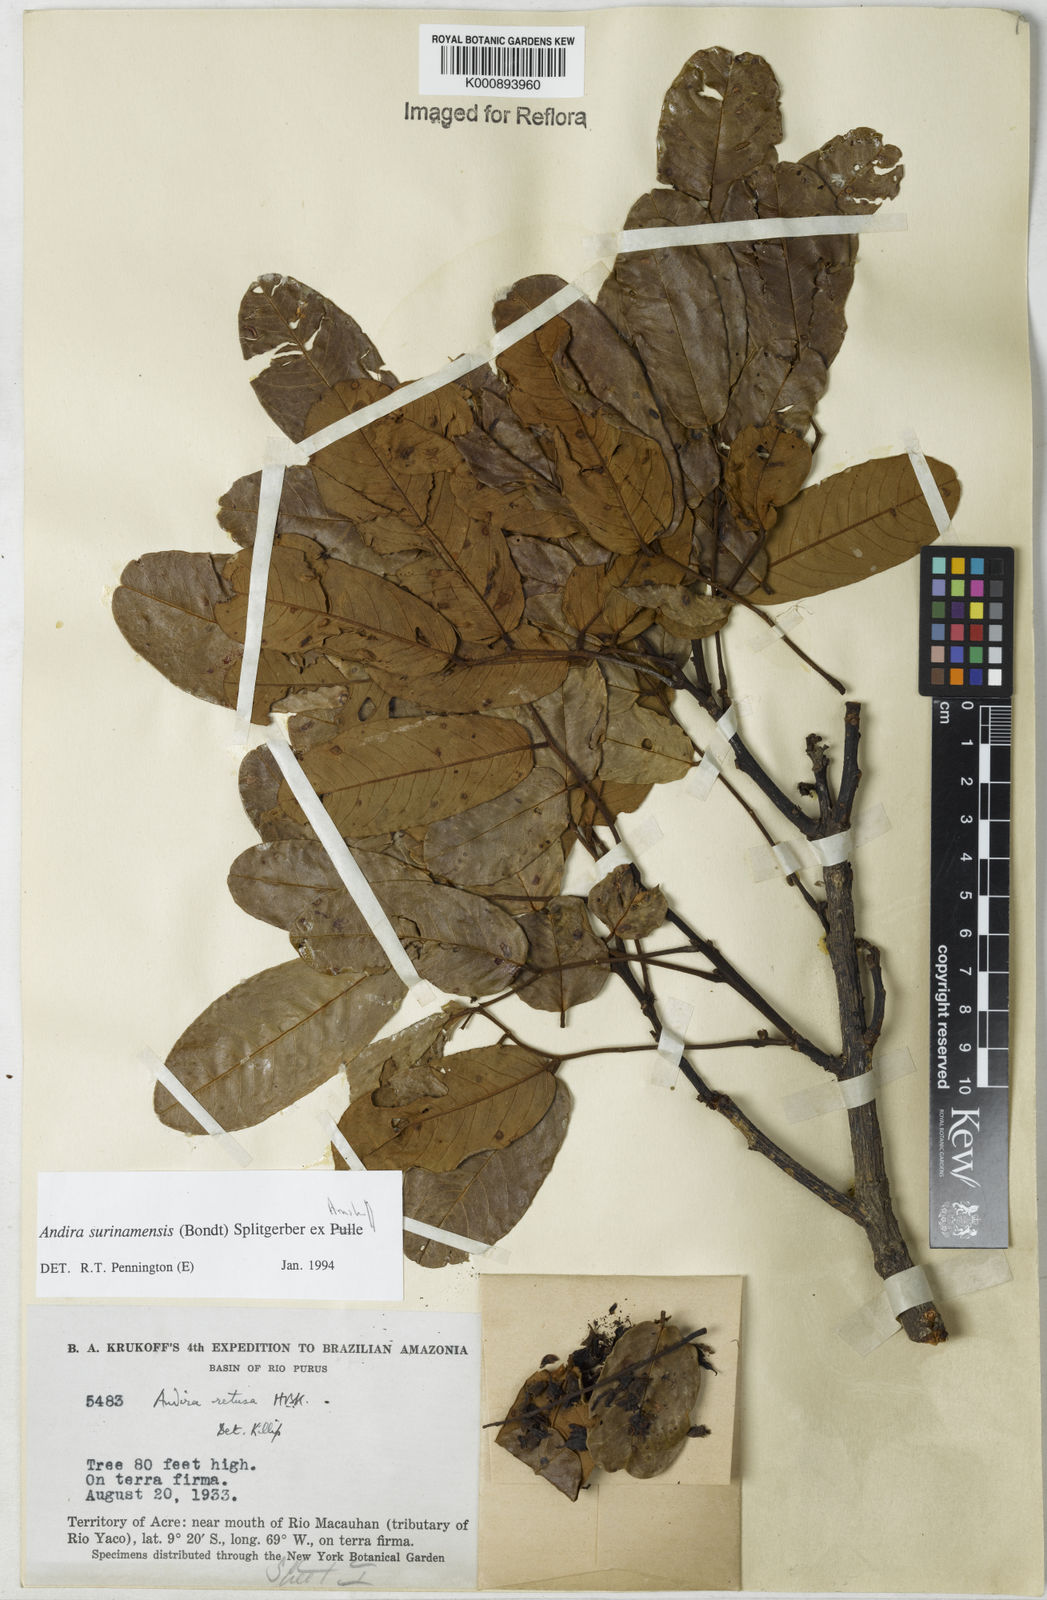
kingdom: Plantae
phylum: Tracheophyta
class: Magnoliopsida
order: Fabales
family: Fabaceae
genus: Andira
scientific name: Andira
